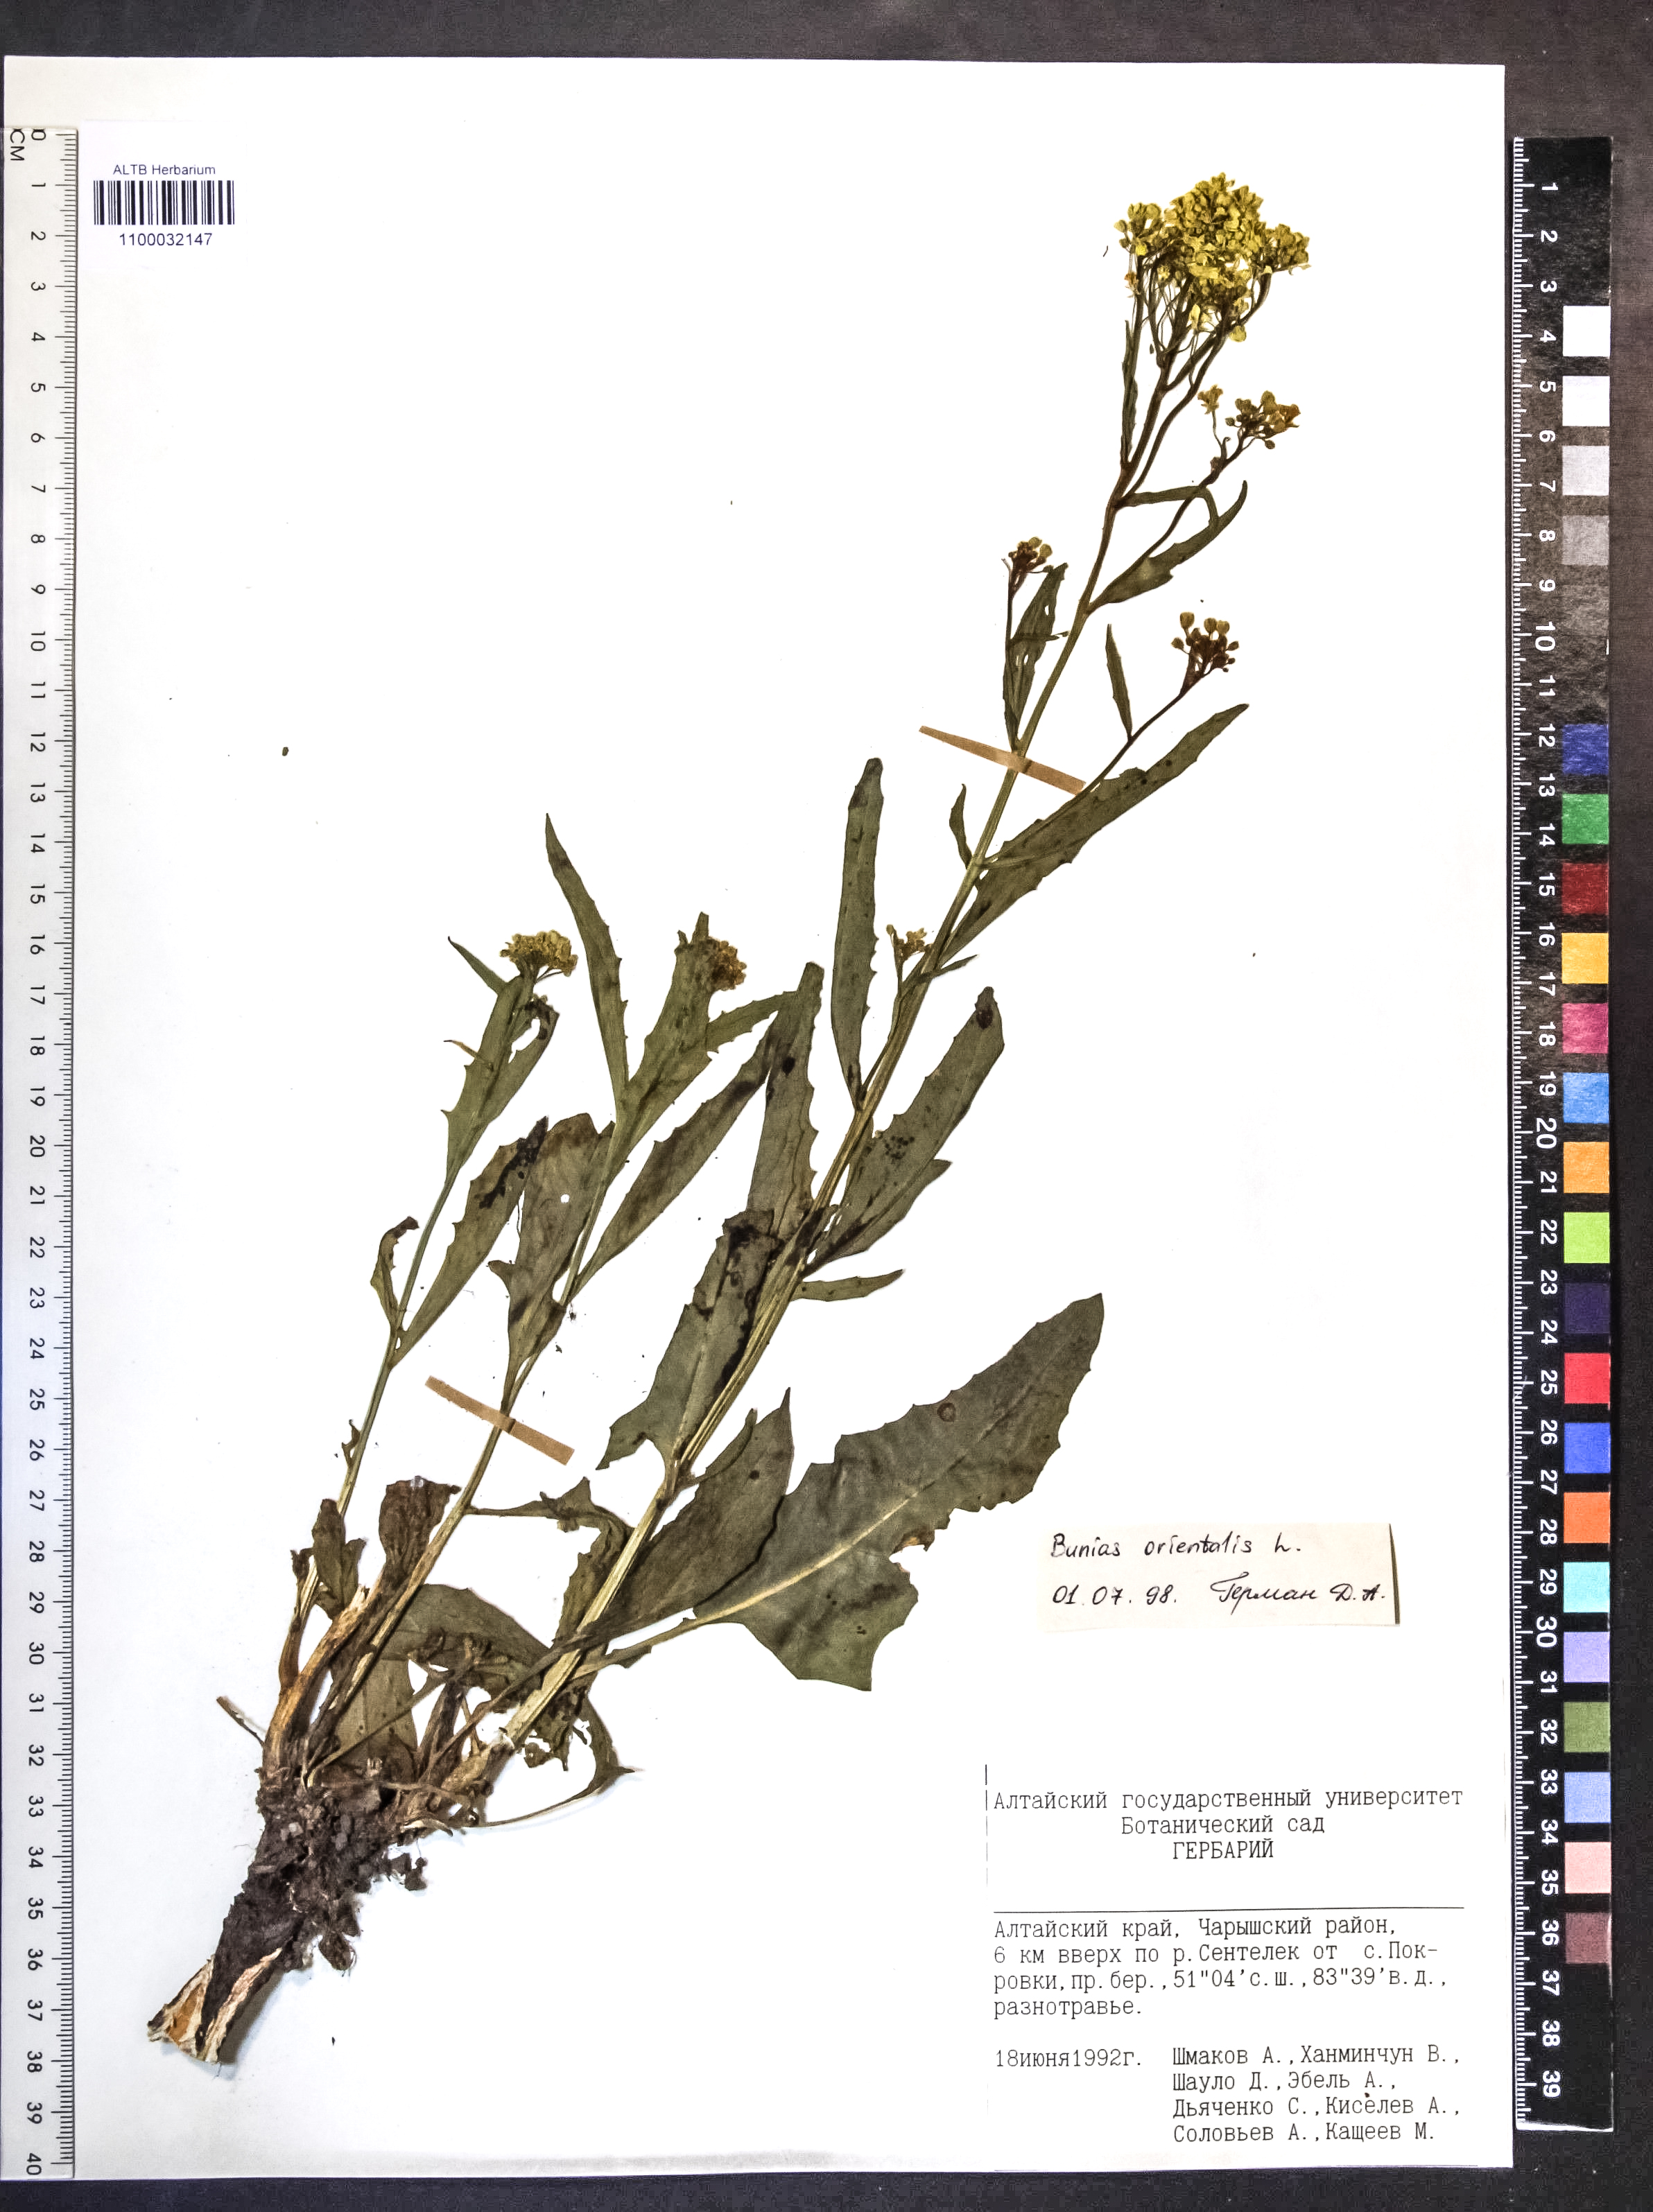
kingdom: Plantae
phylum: Tracheophyta
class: Magnoliopsida
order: Brassicales
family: Brassicaceae
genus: Bunias
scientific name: Bunias orientalis
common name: Warty-cabbage
